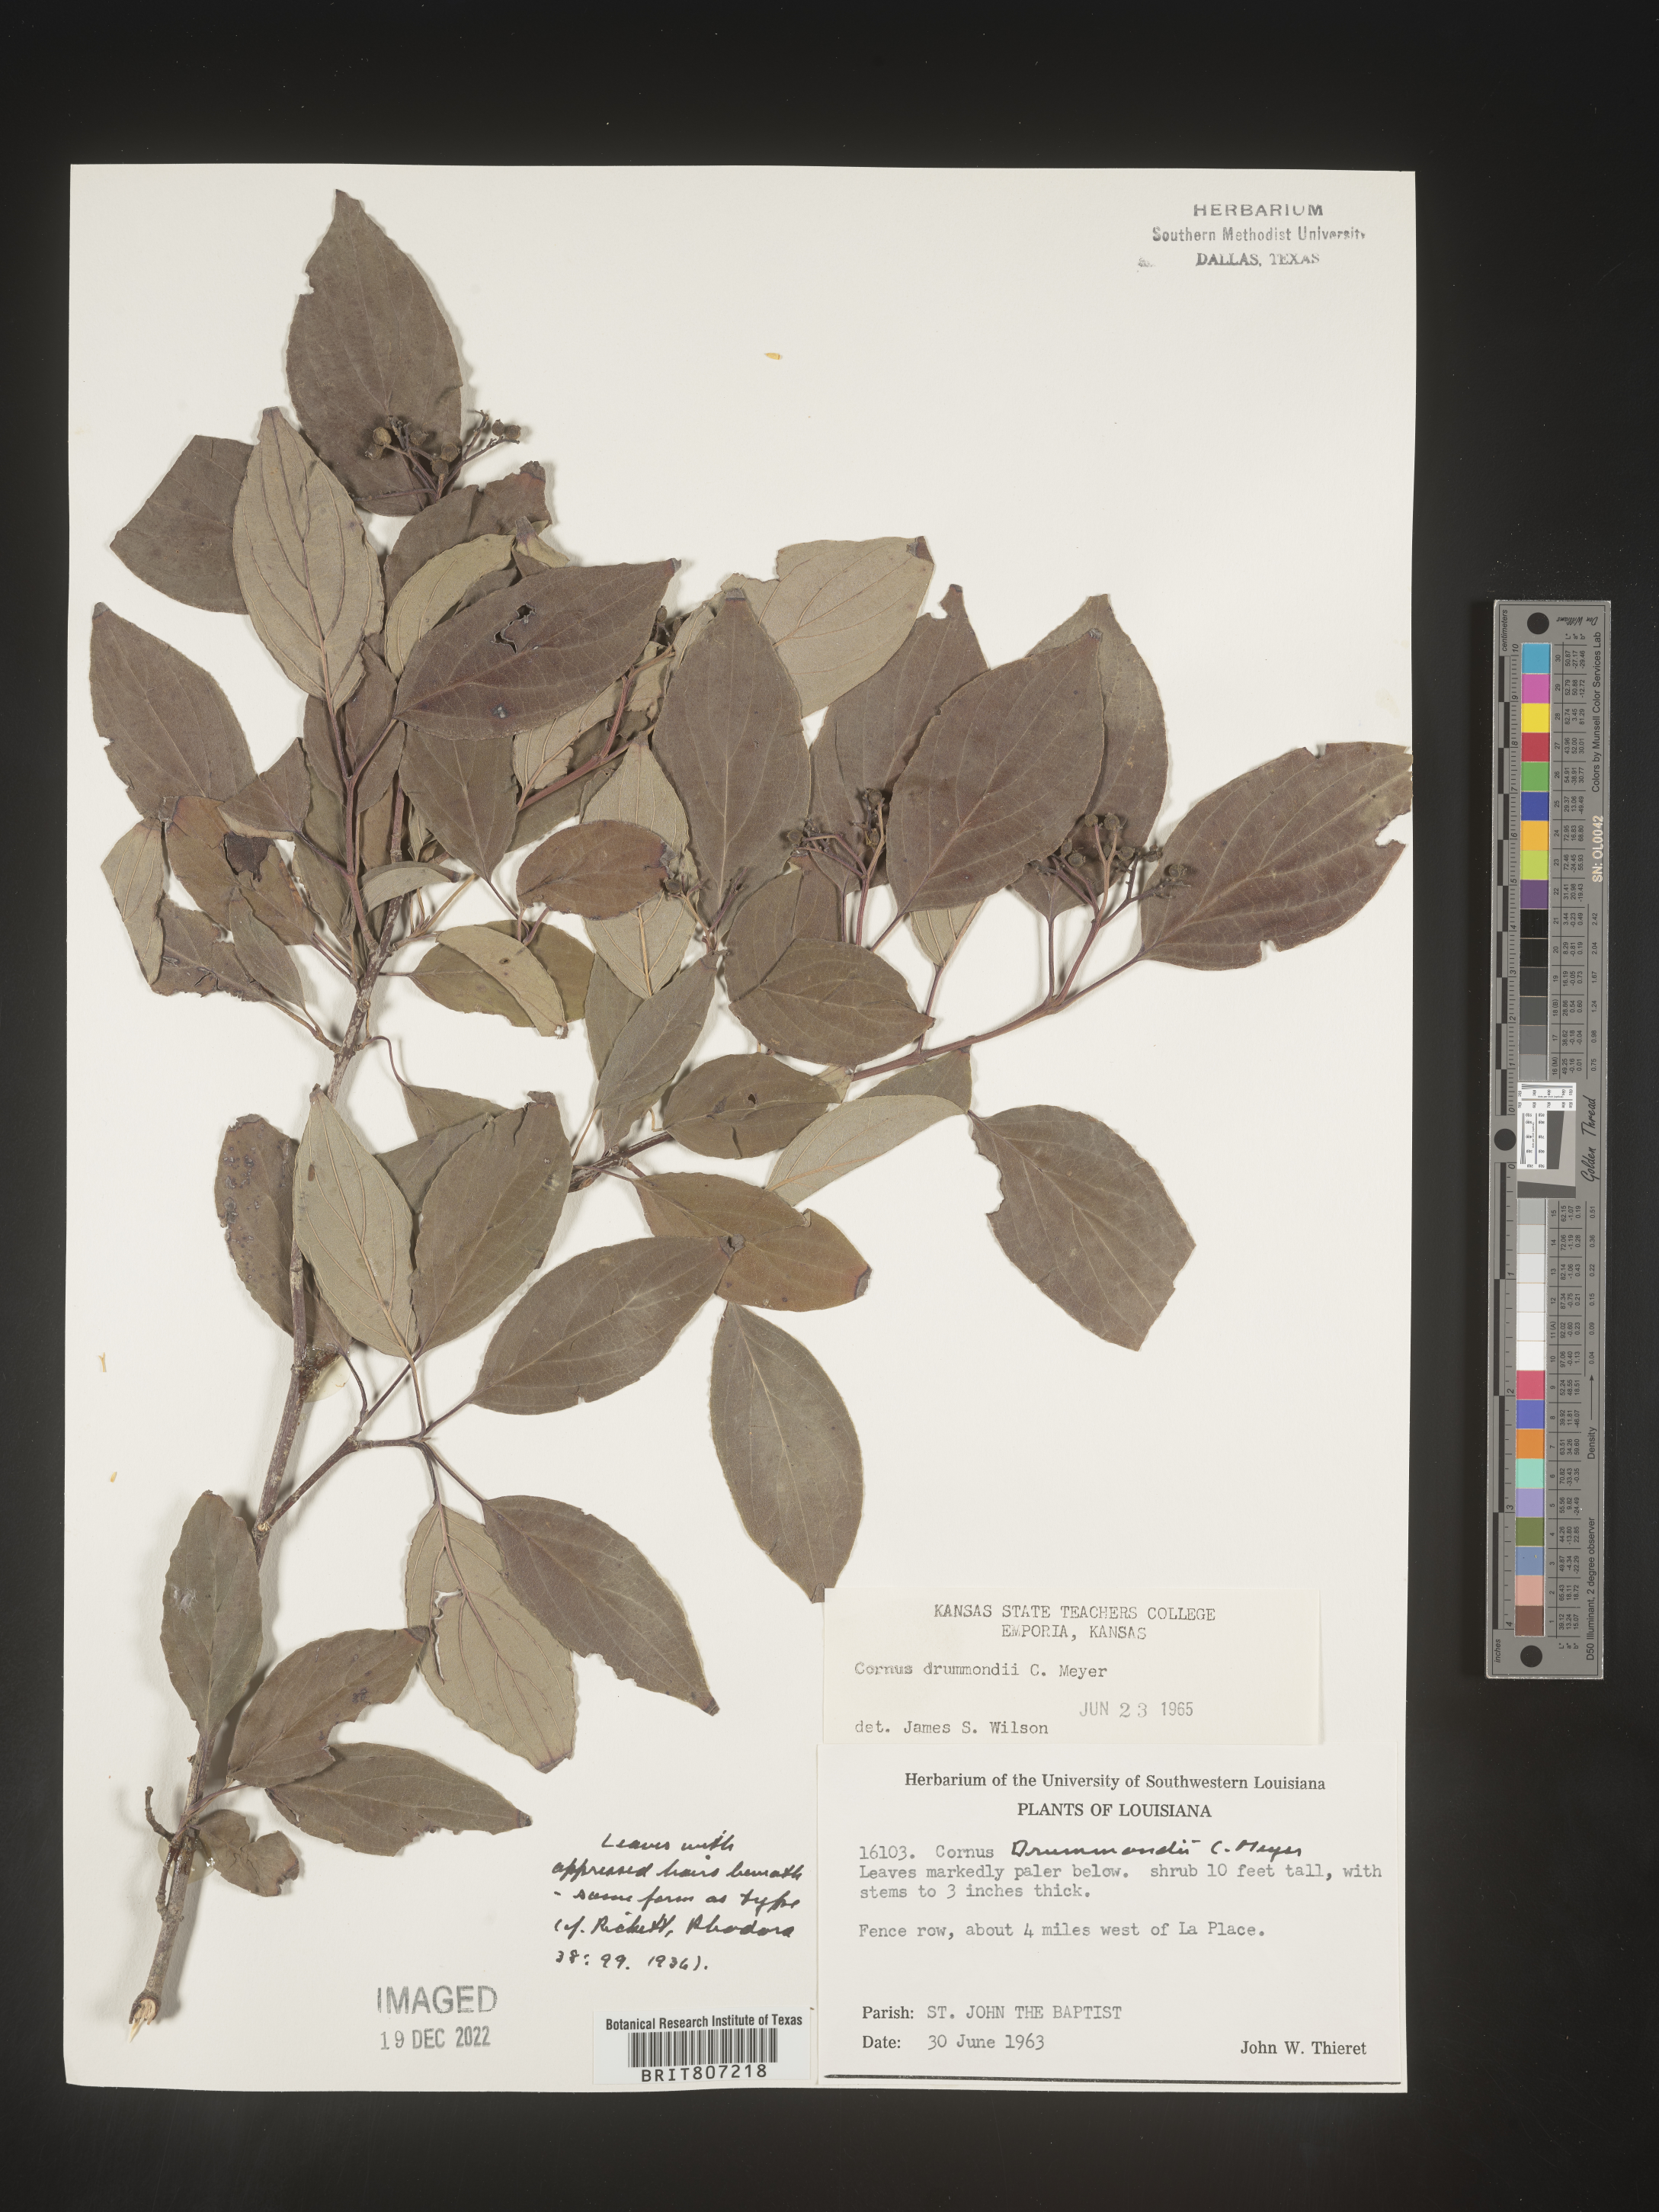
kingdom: Plantae
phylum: Tracheophyta
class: Magnoliopsida
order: Cornales
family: Cornaceae
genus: Cornus
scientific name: Cornus drummondii
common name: Rough-leaf dogwood
